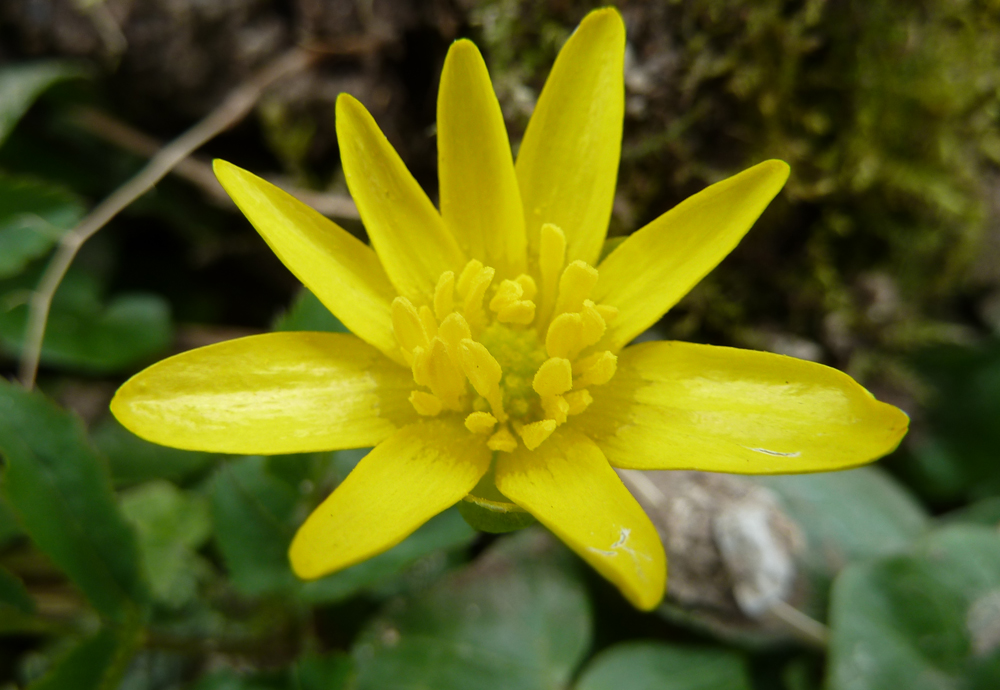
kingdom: Plantae
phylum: Tracheophyta
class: Magnoliopsida
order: Ranunculales
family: Ranunculaceae
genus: Ficaria
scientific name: Ficaria verna
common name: Lesser celandine
